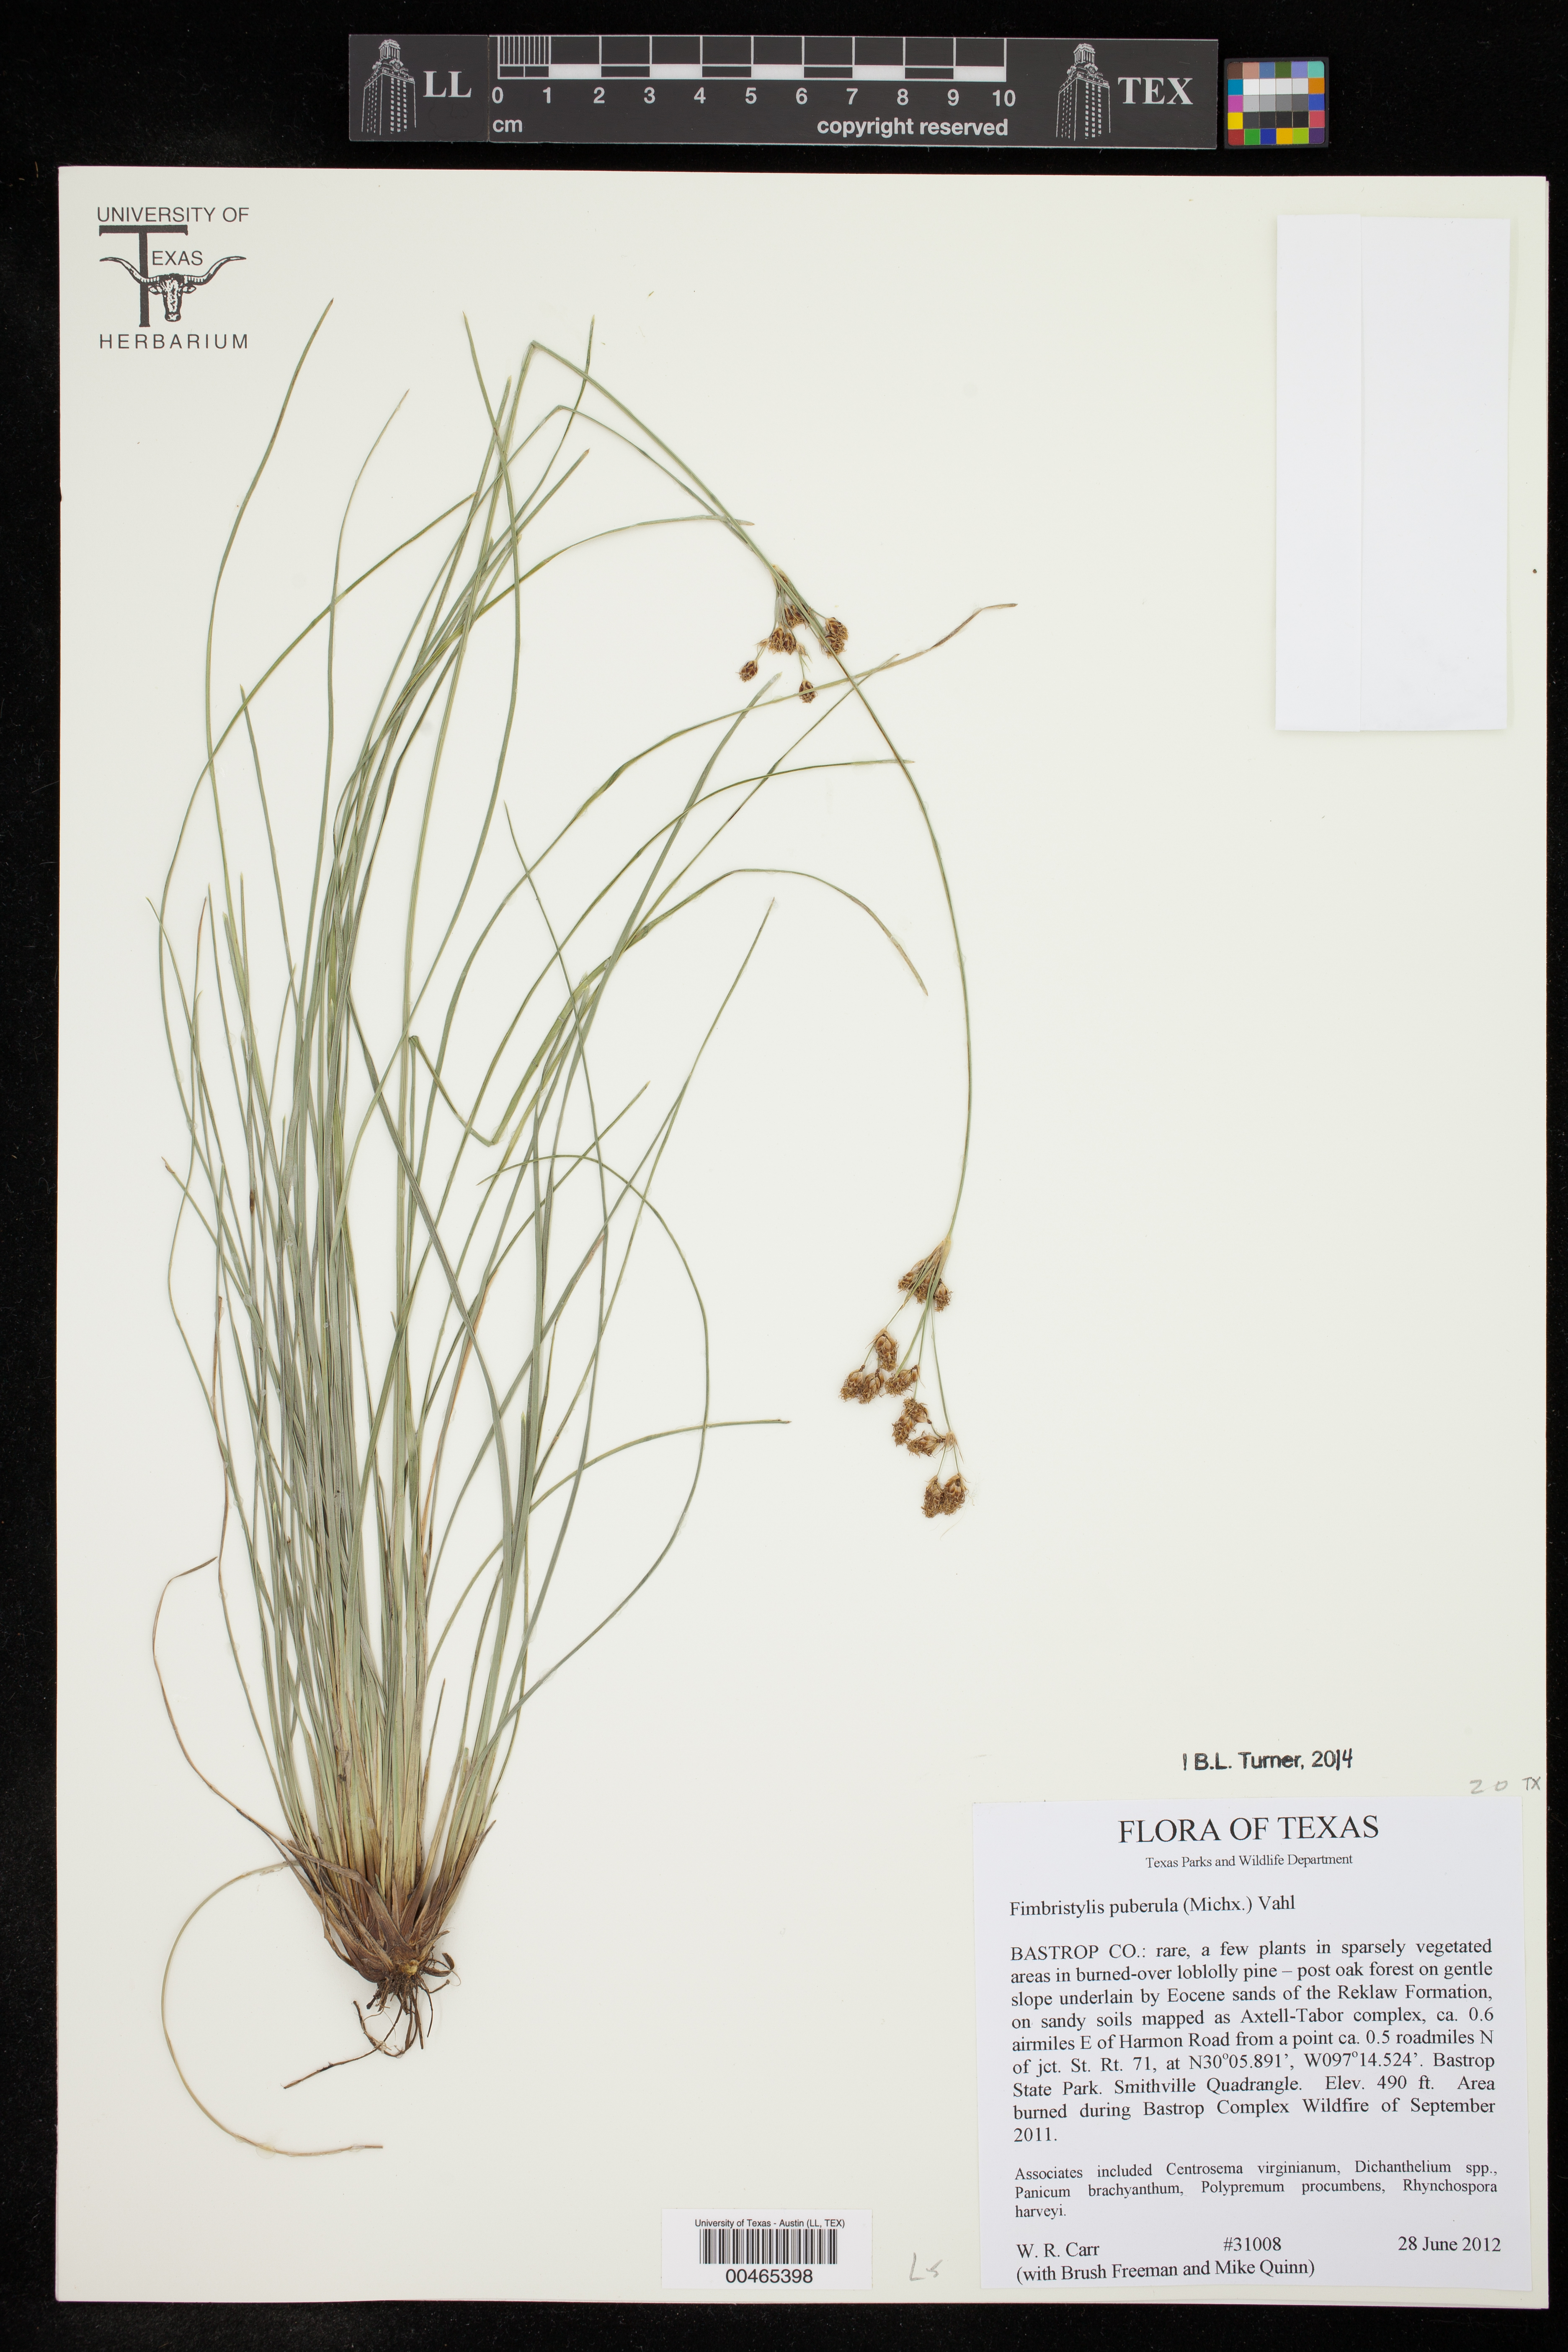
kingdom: Plantae
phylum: Tracheophyta
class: Liliopsida
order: Poales
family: Cyperaceae
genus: Fimbristylis
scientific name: Fimbristylis puberula
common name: Hairy fimbristylis
